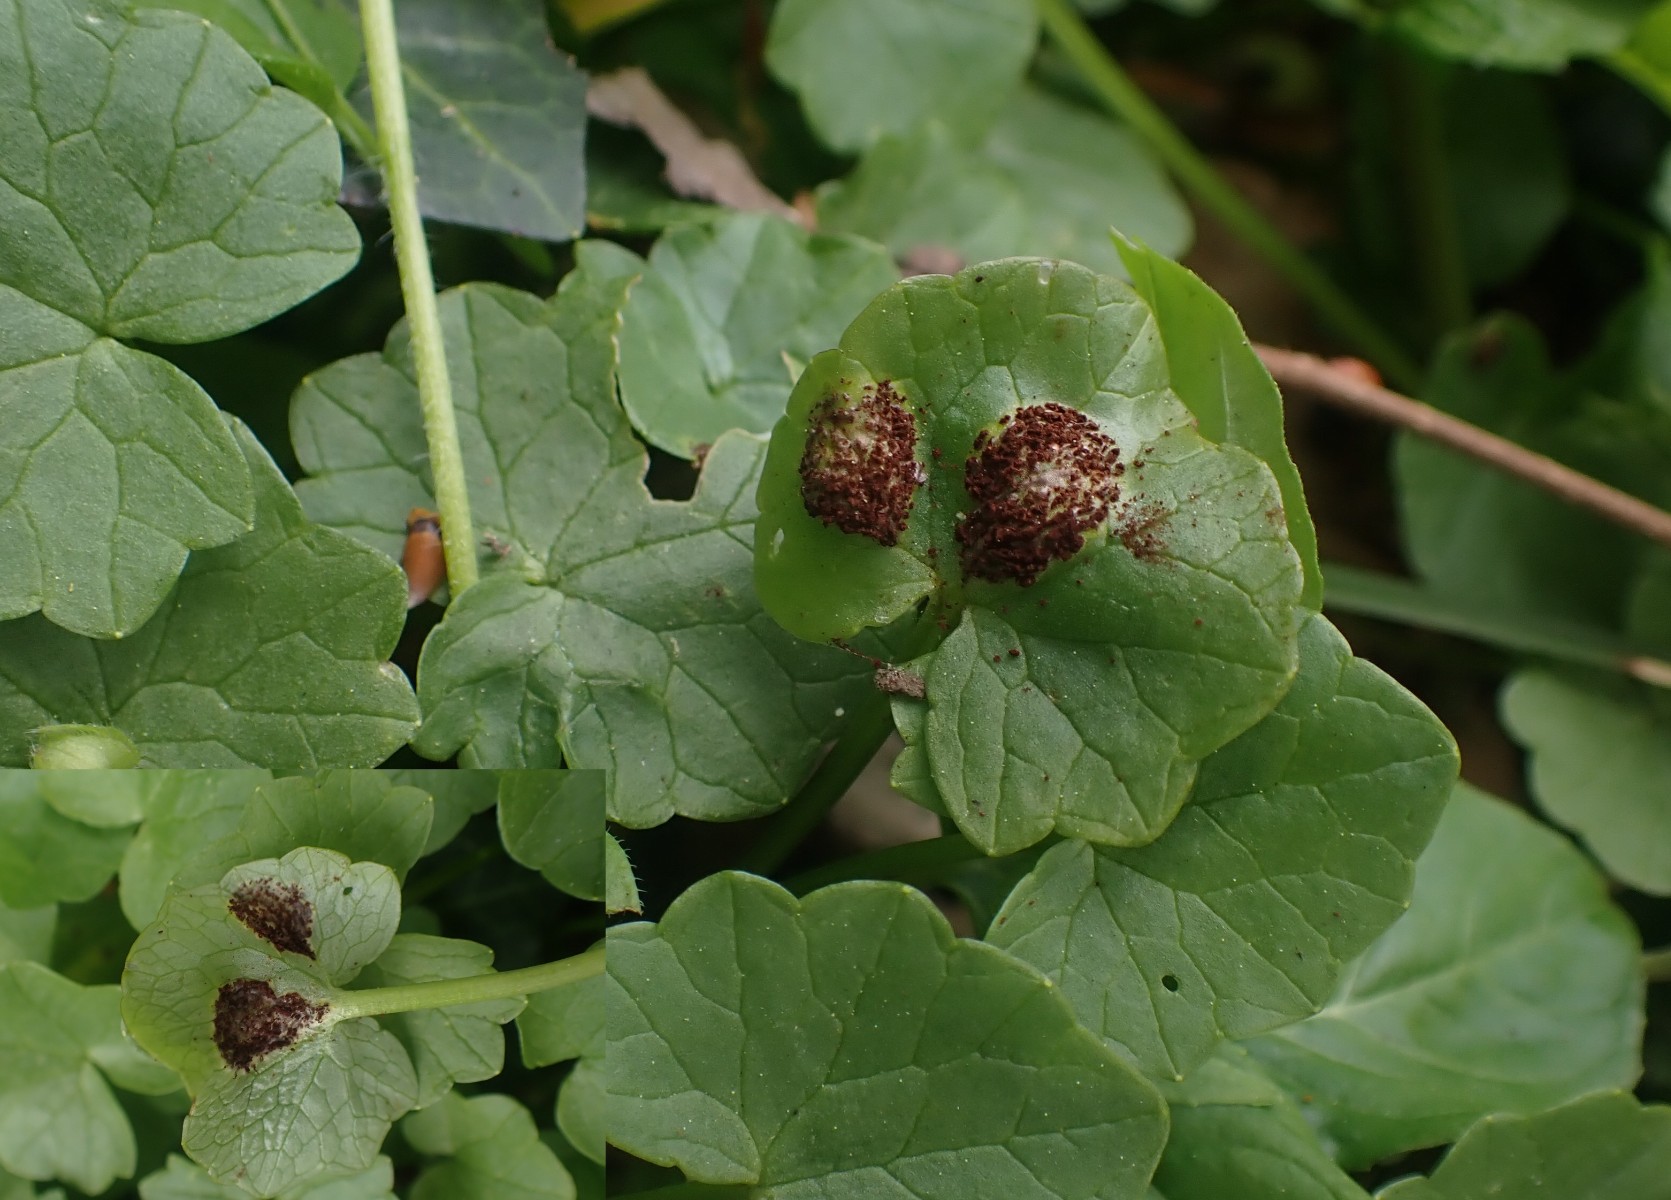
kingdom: Fungi
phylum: Basidiomycota
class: Pucciniomycetes
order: Pucciniales
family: Pucciniaceae
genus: Uromyces
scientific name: Uromyces ficariae
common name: vorterod-encellerust
